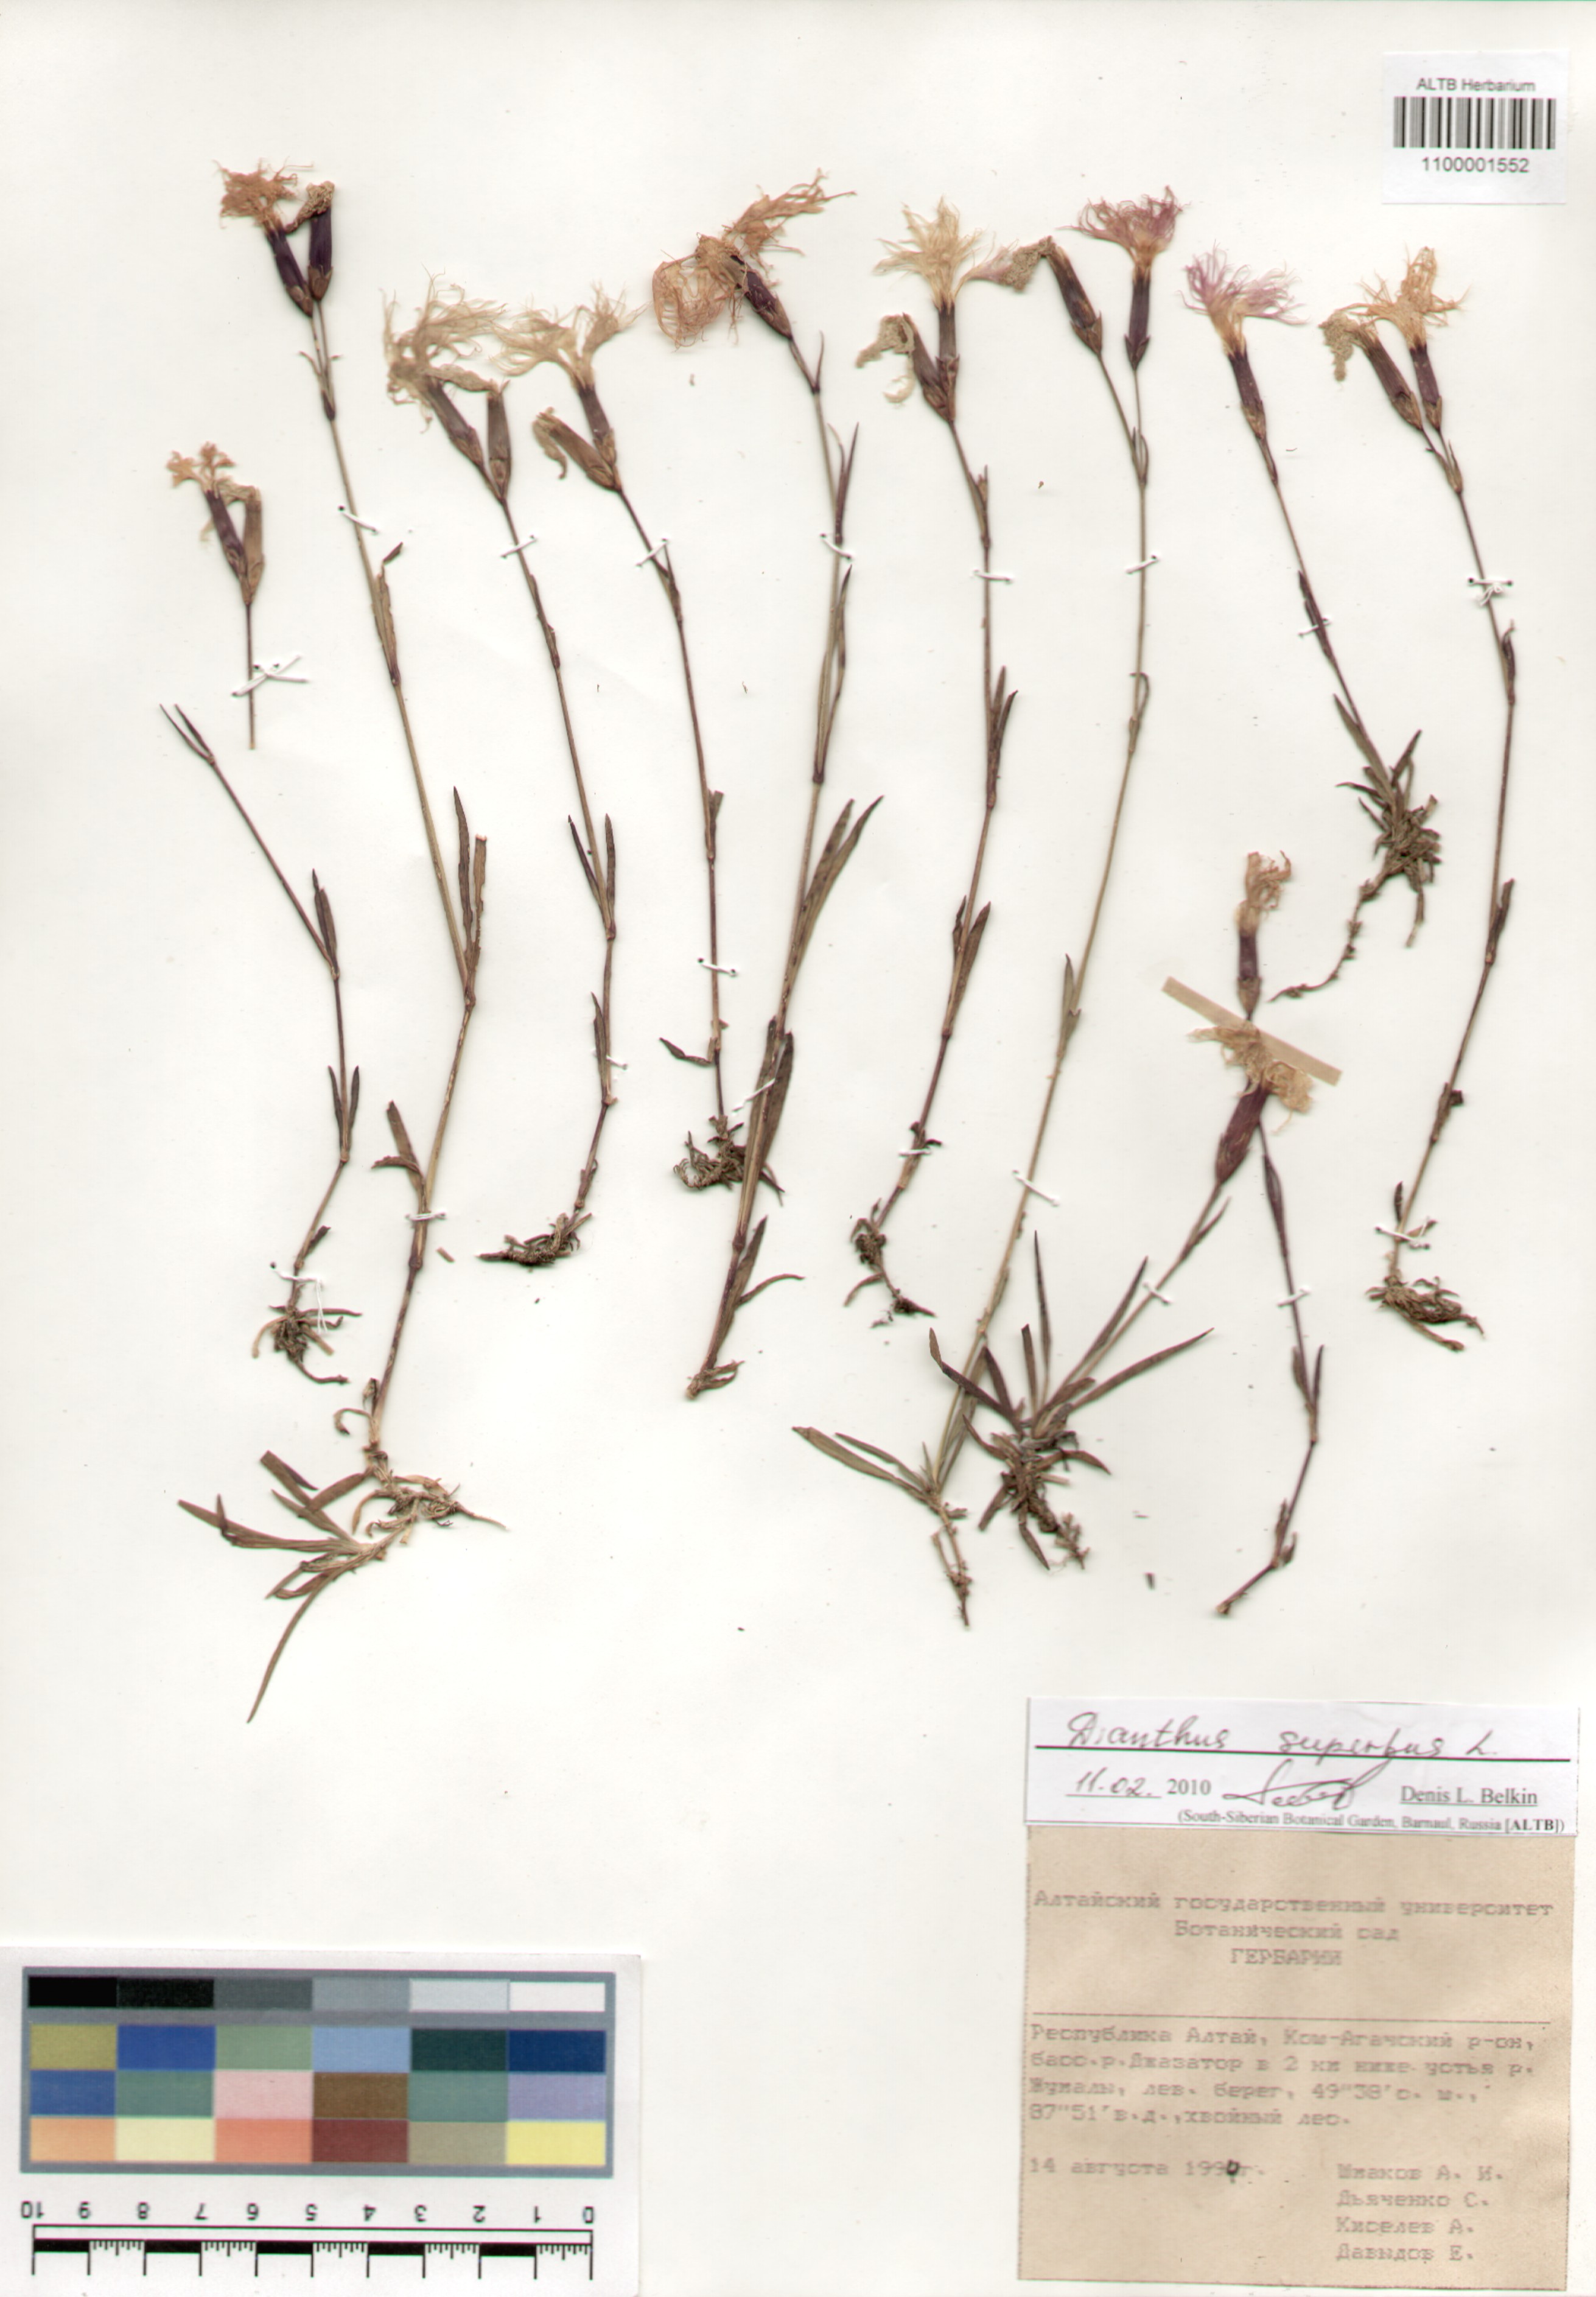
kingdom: Plantae
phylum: Tracheophyta
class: Magnoliopsida
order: Caryophyllales
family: Caryophyllaceae
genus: Dianthus
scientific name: Dianthus superbus
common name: Fringed pink
